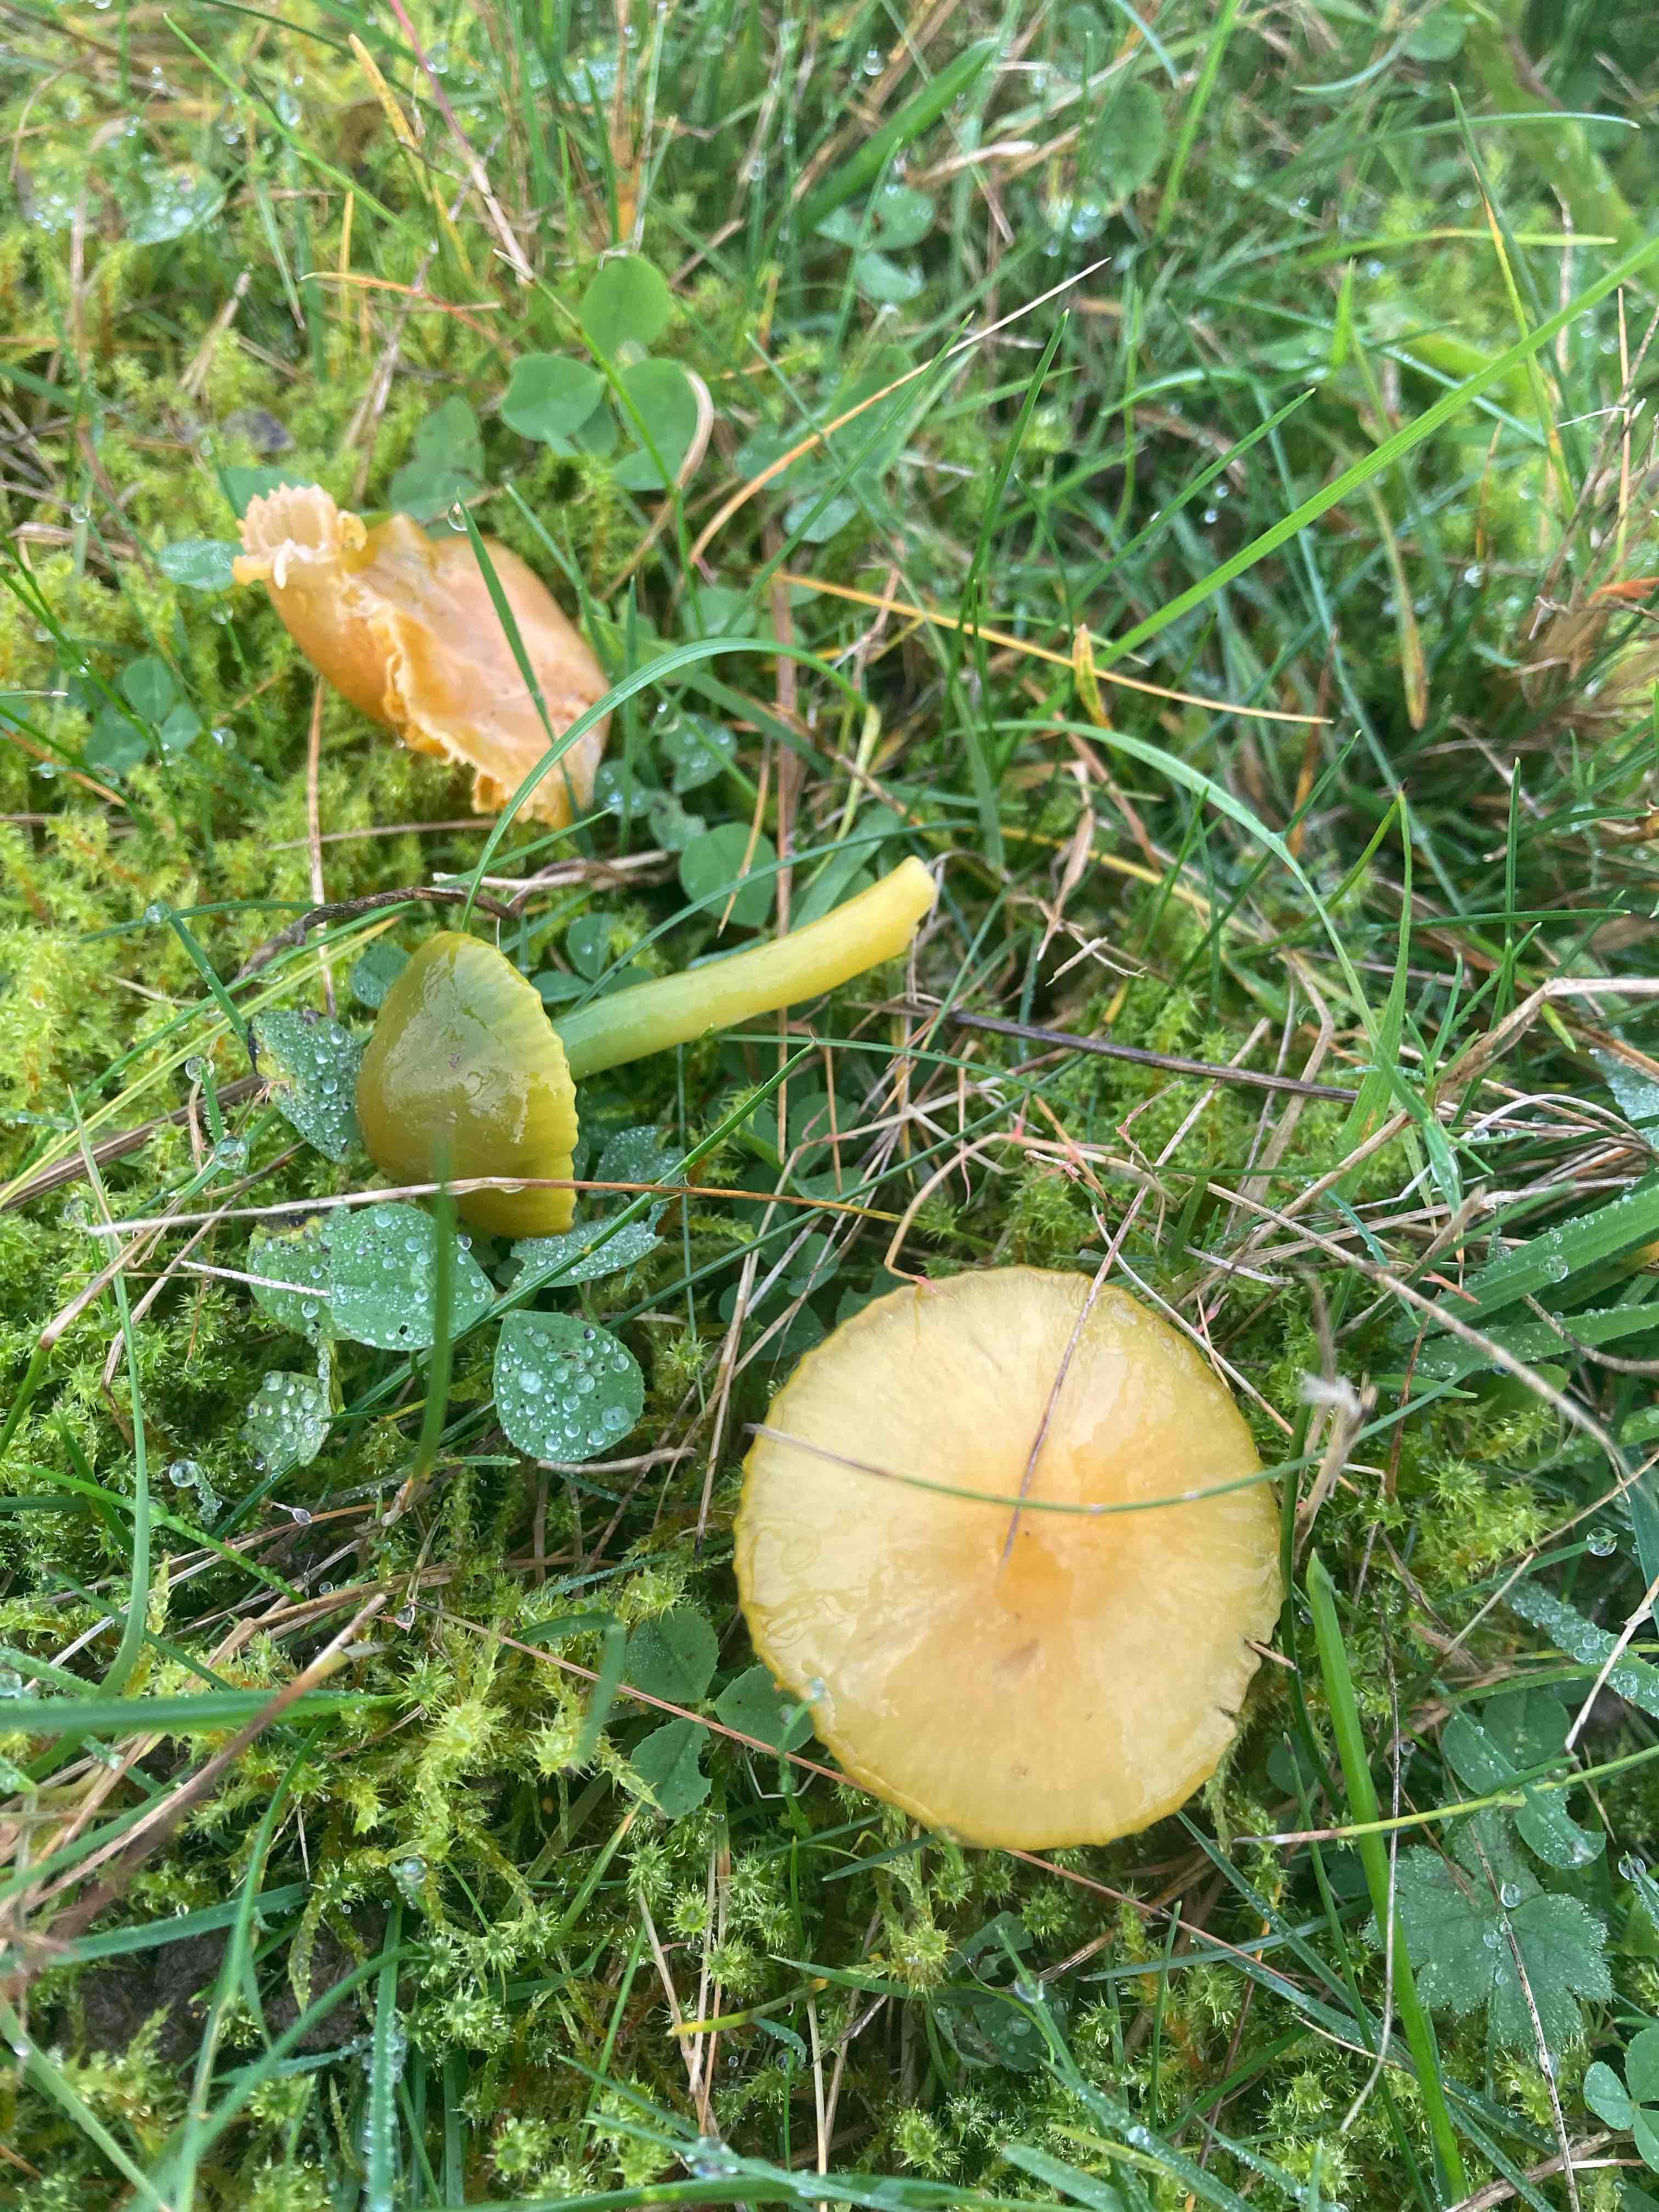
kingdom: Fungi
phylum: Basidiomycota
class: Agaricomycetes
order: Agaricales
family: Hygrophoraceae
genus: Gliophorus
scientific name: Gliophorus psittacinus
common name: papegøje-vokshat
